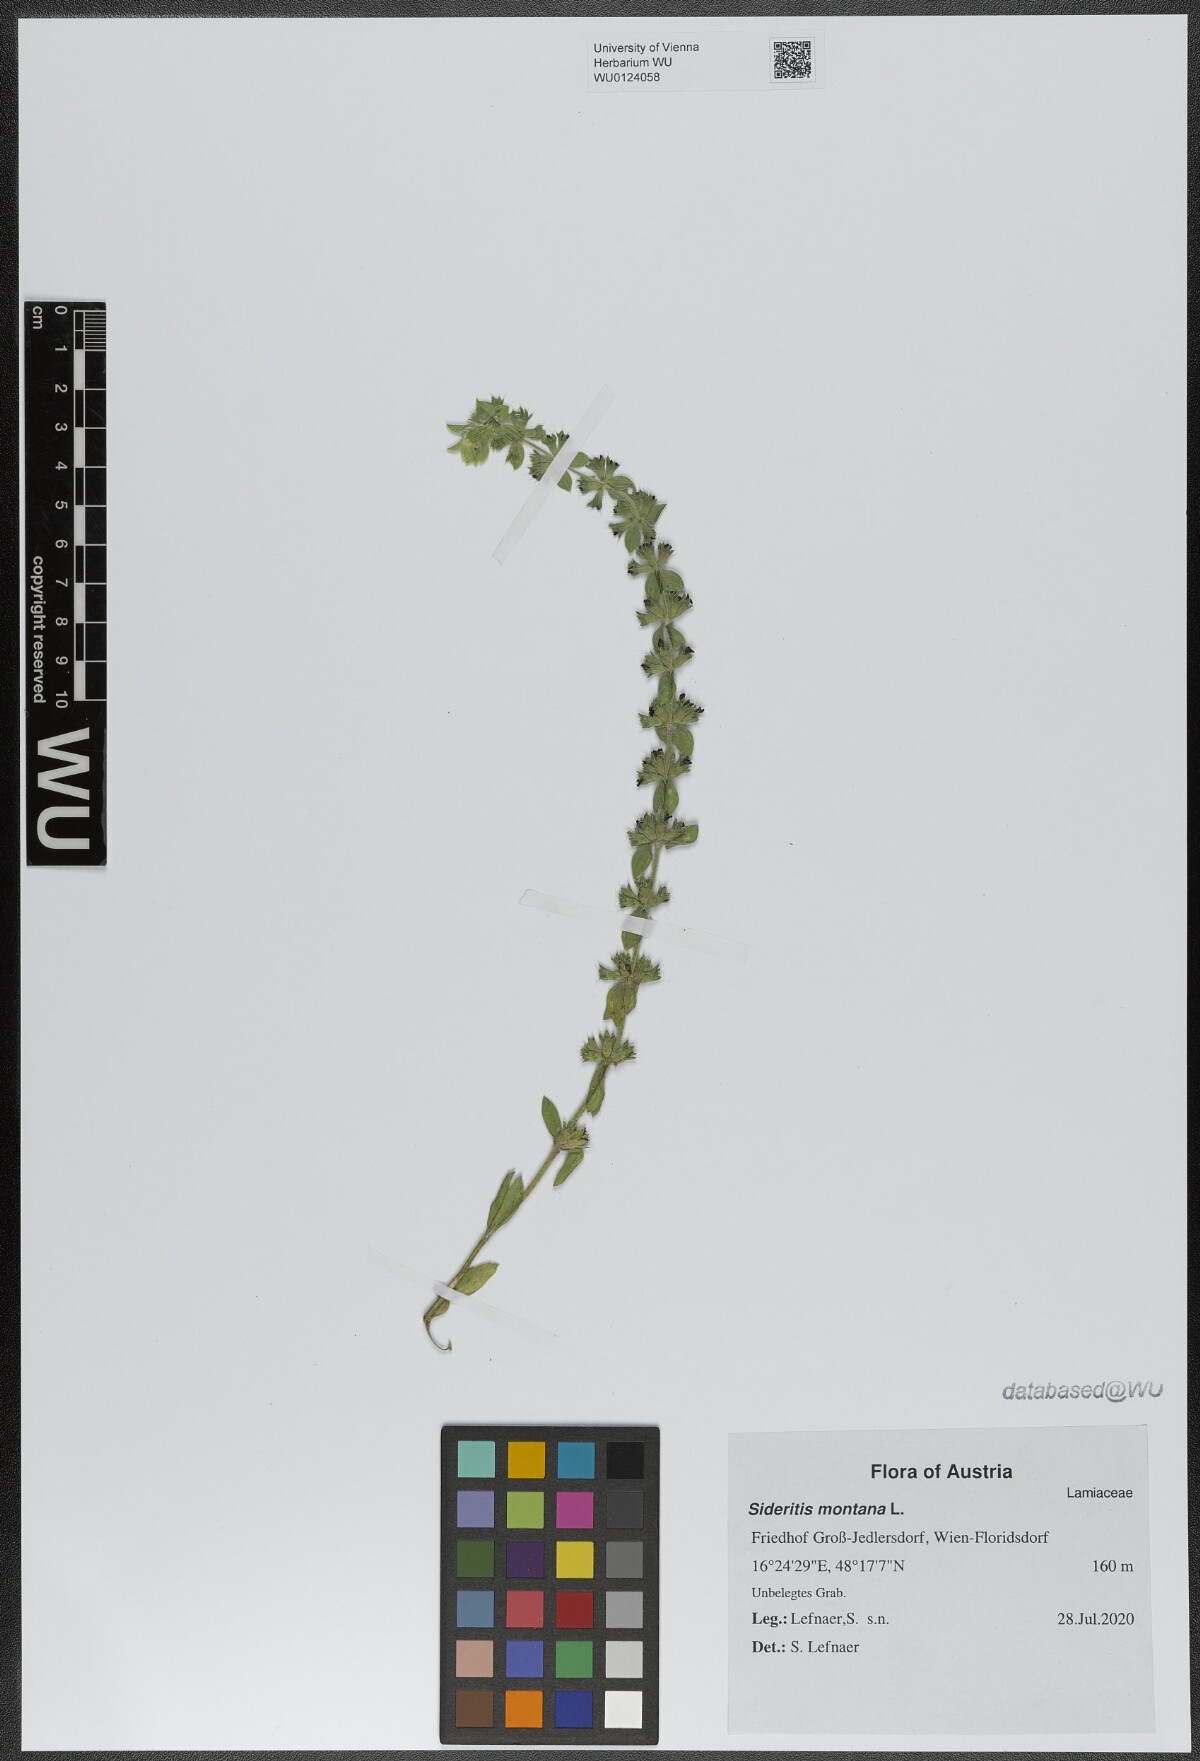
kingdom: Plantae
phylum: Tracheophyta
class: Magnoliopsida
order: Lamiales
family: Lamiaceae
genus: Sideritis
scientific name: Sideritis montana
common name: Mountain ironwort
